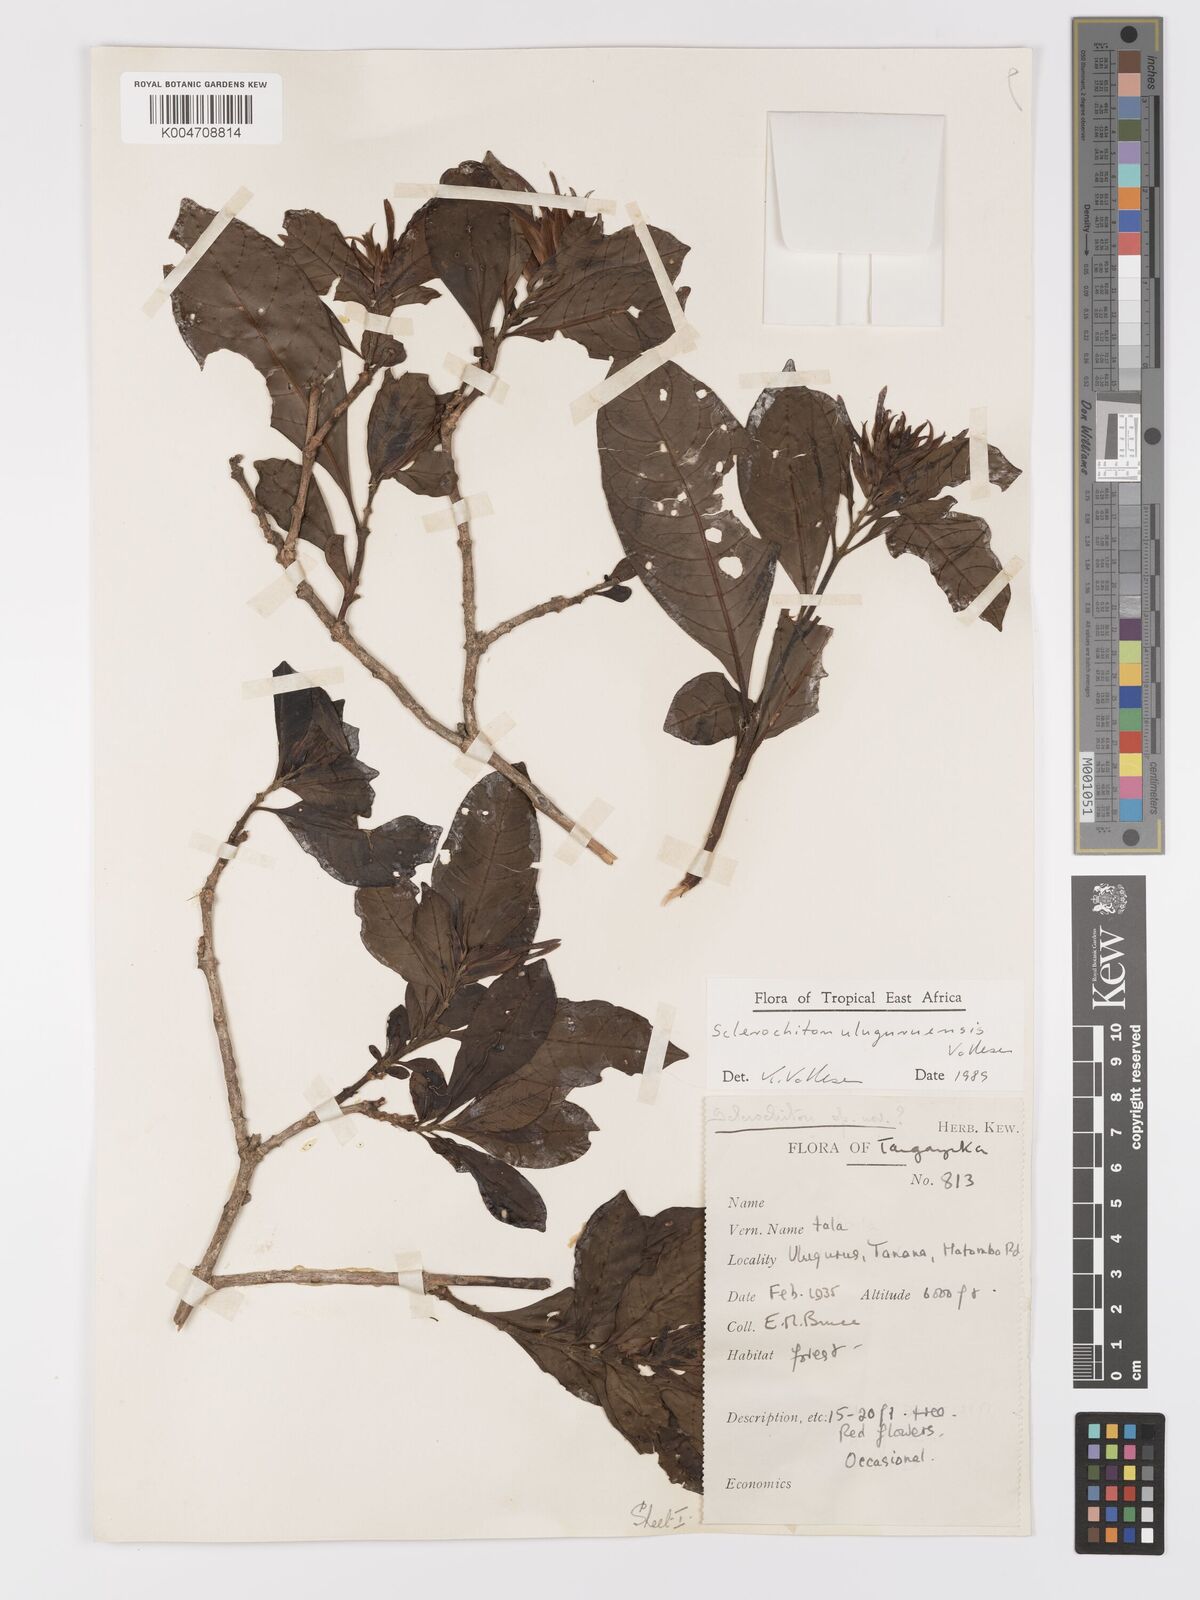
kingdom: Plantae
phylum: Tracheophyta
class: Magnoliopsida
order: Lamiales
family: Acanthaceae
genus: Sclerochiton
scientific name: Sclerochiton uluguruensis
